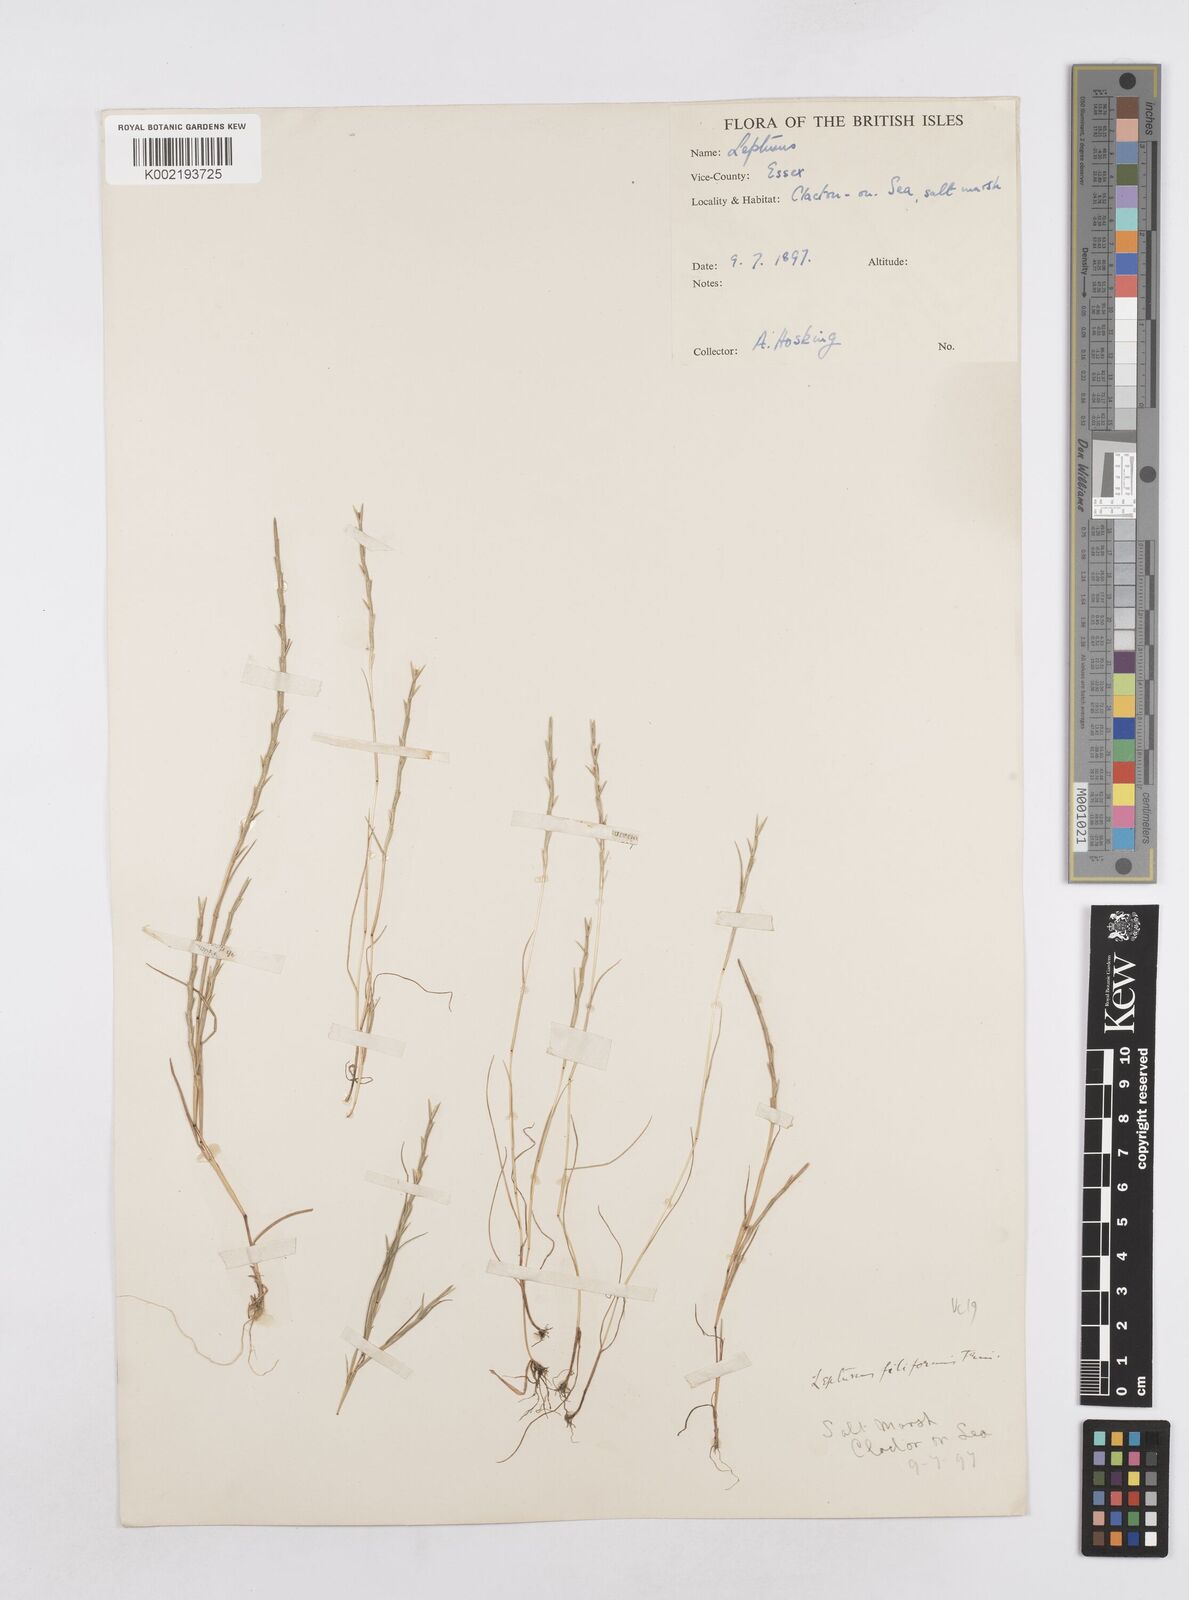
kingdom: Plantae
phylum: Tracheophyta
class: Liliopsida
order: Poales
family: Poaceae
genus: Parapholis
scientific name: Parapholis strigosa
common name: Hard-grass
